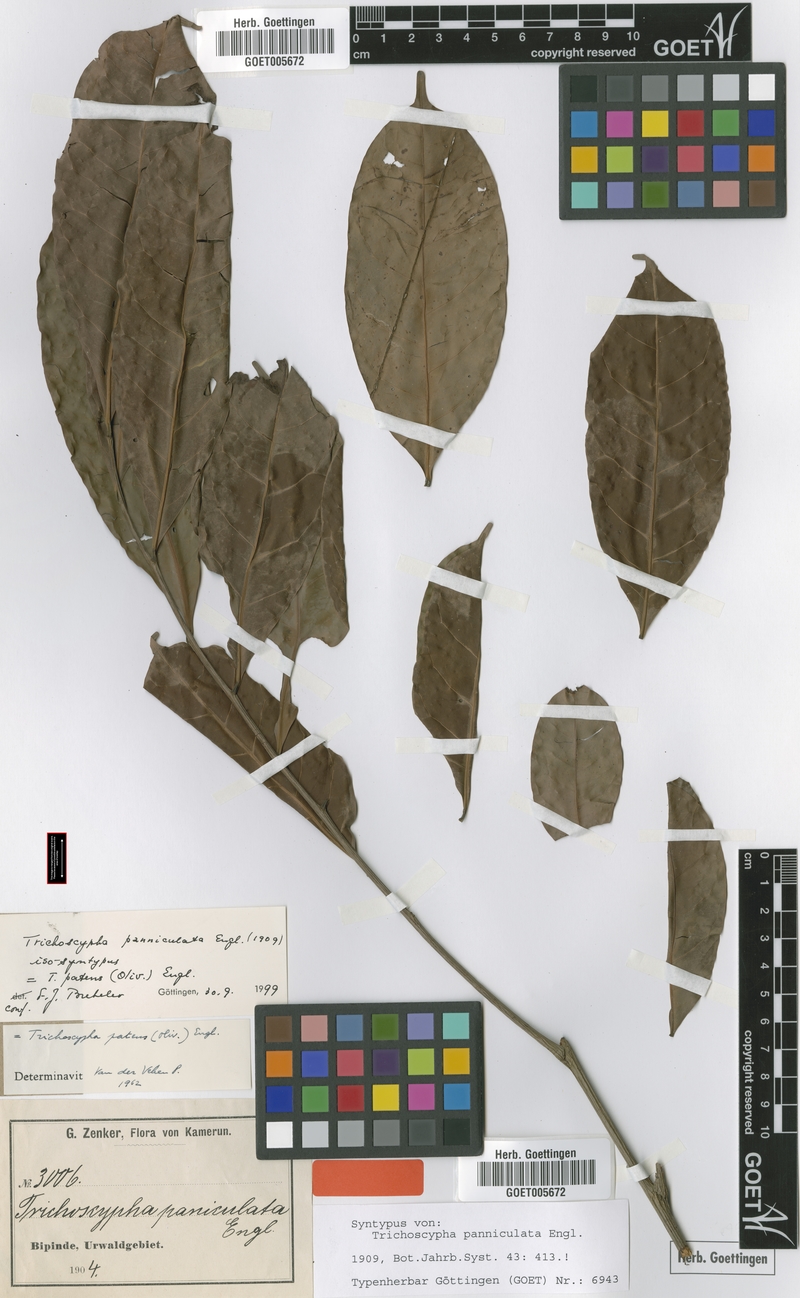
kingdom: Plantae
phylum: Tracheophyta
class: Magnoliopsida
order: Sapindales
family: Anacardiaceae
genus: Trichoscypha
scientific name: Trichoscypha patens
